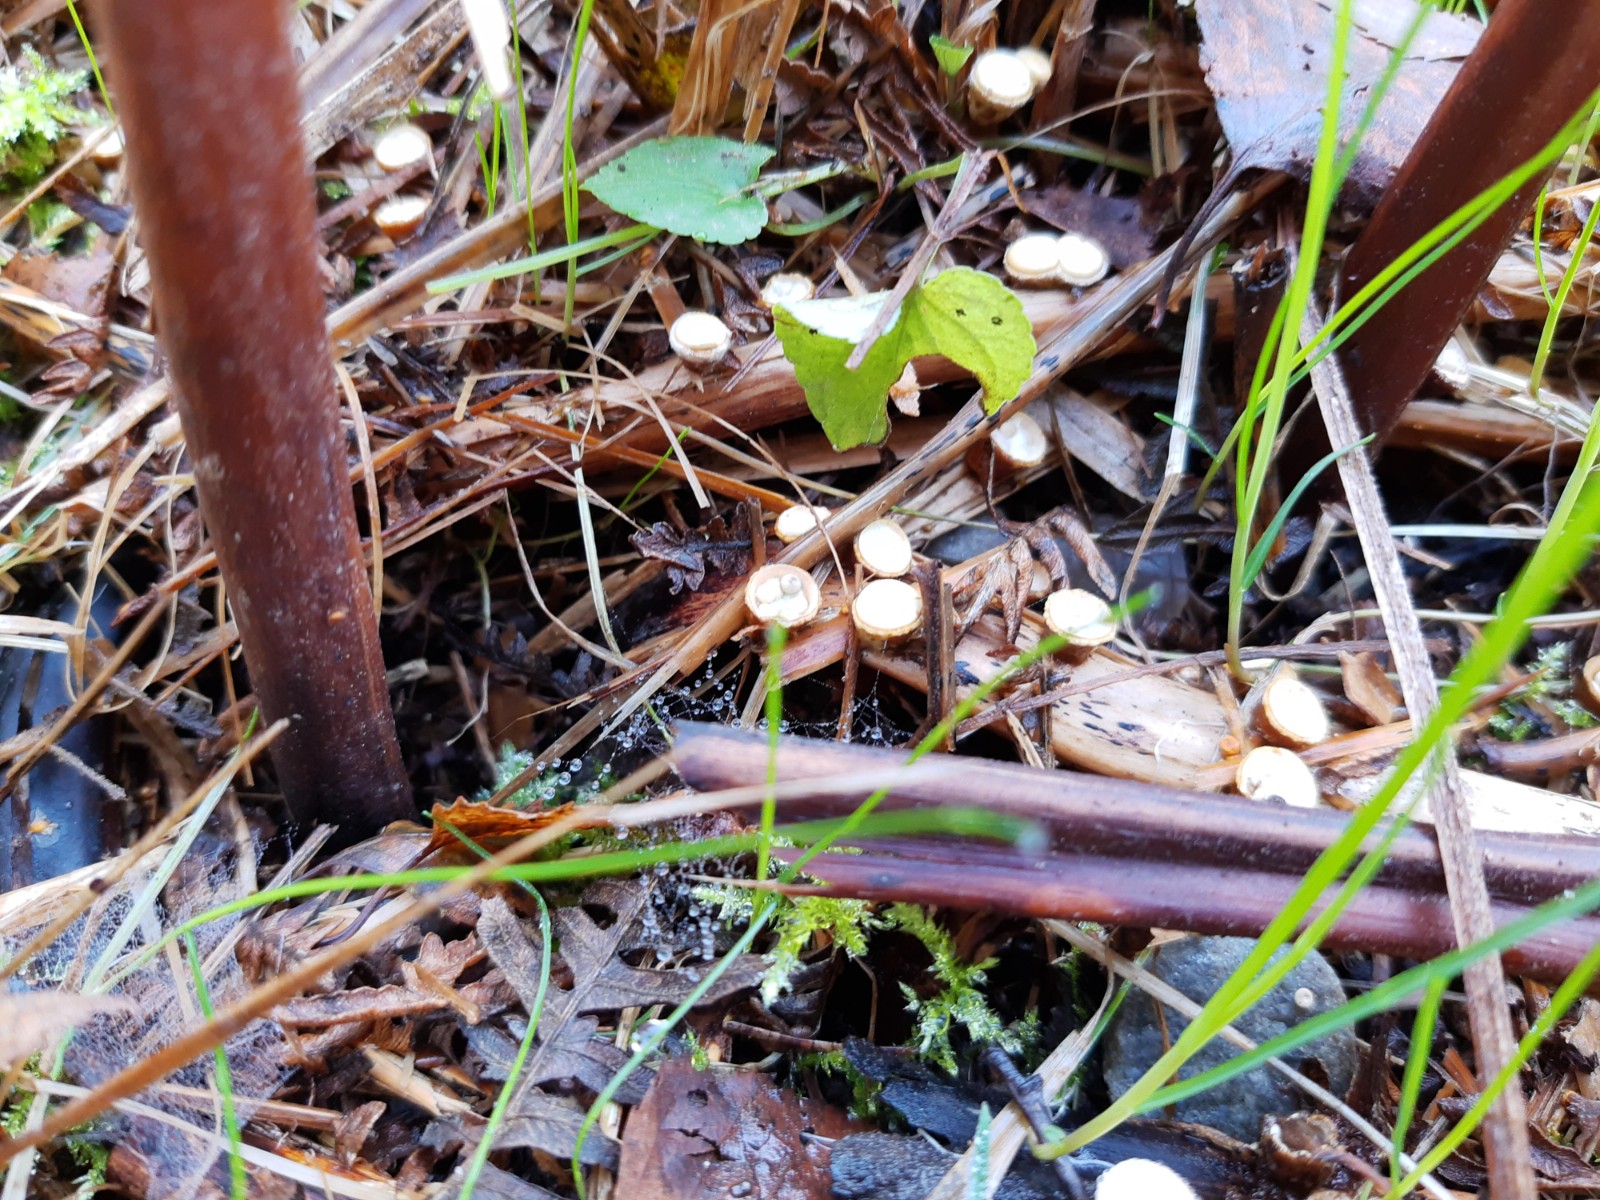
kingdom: Fungi
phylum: Basidiomycota
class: Agaricomycetes
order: Agaricales
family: Nidulariaceae
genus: Crucibulum
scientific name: Crucibulum crucibuliforme
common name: krukkesvamp
